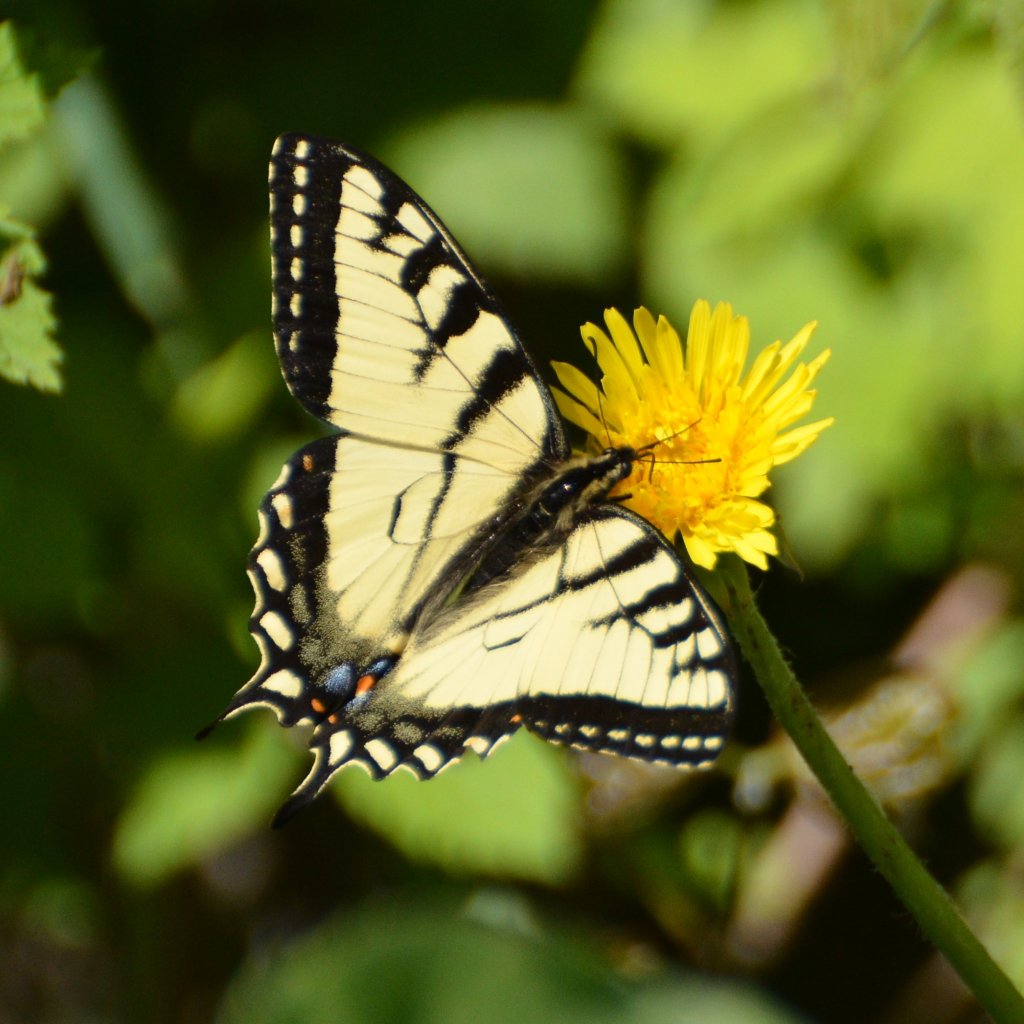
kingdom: Animalia
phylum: Arthropoda
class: Insecta
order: Lepidoptera
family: Papilionidae
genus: Pterourus
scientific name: Pterourus canadensis
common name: Canadian Tiger Swallowtail
